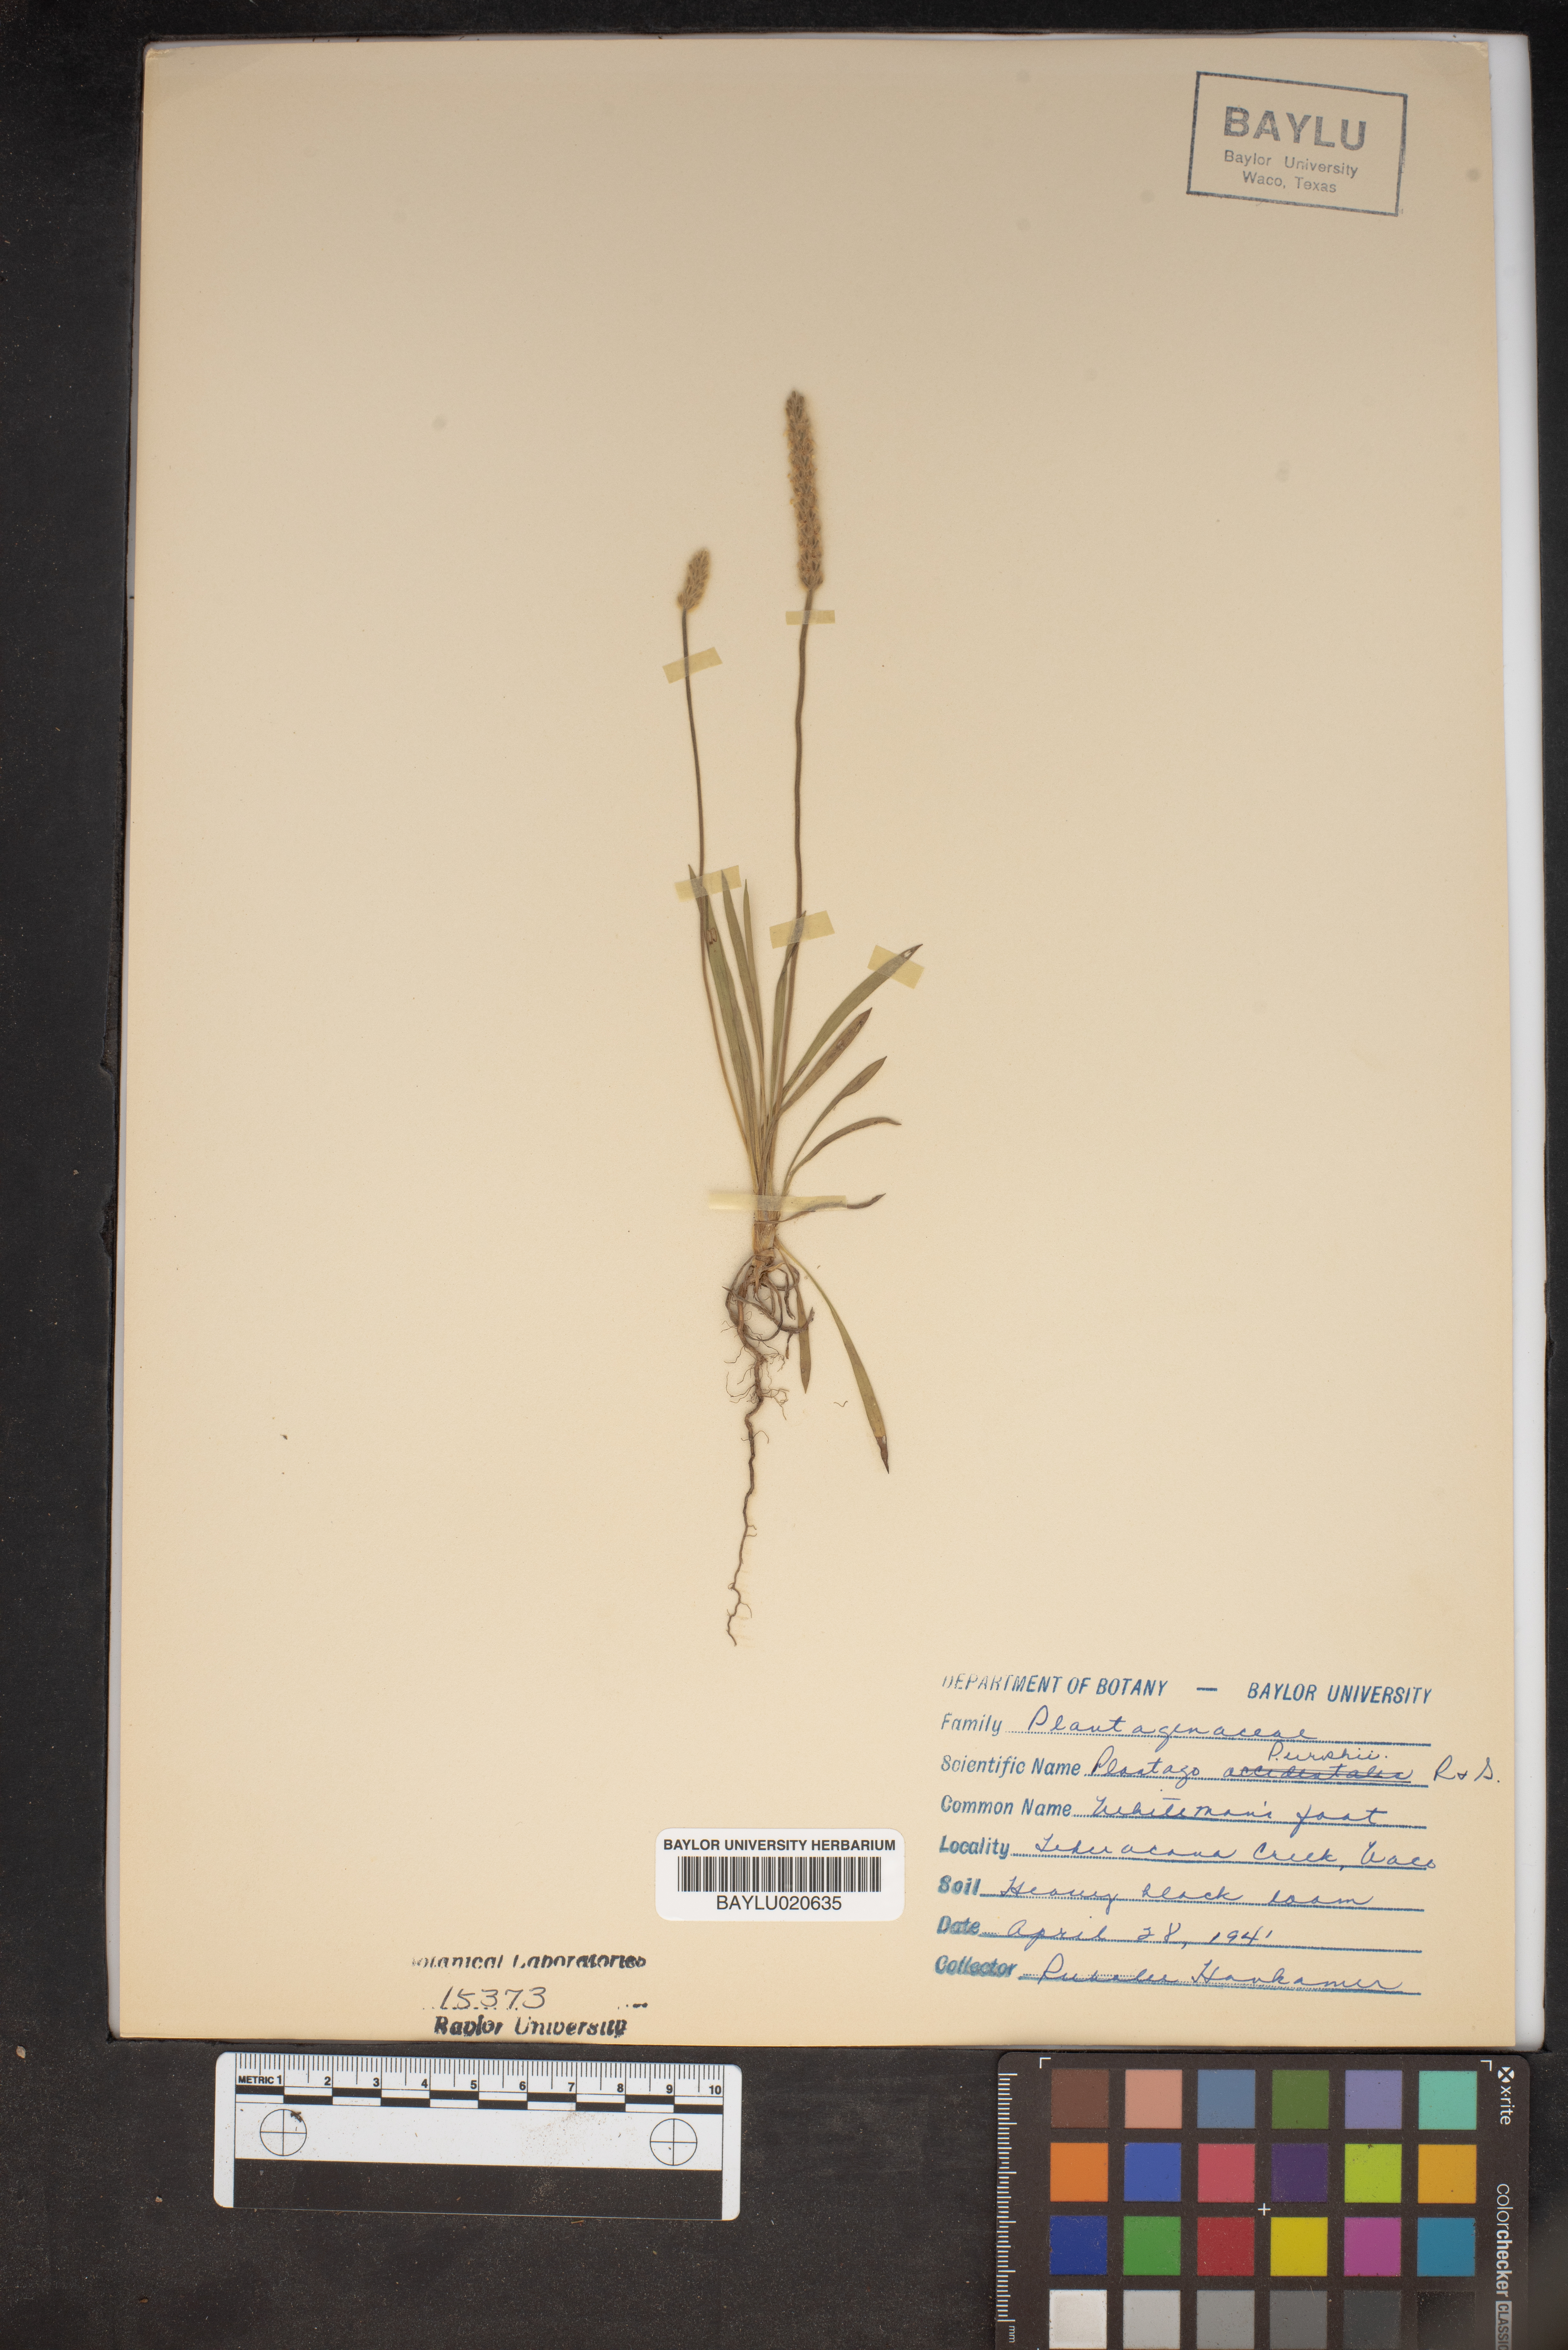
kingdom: Plantae
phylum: Tracheophyta
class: Magnoliopsida
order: Lamiales
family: Plantaginaceae
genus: Plantago
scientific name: Plantago patagonica
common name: Patagonia indian-wheat
